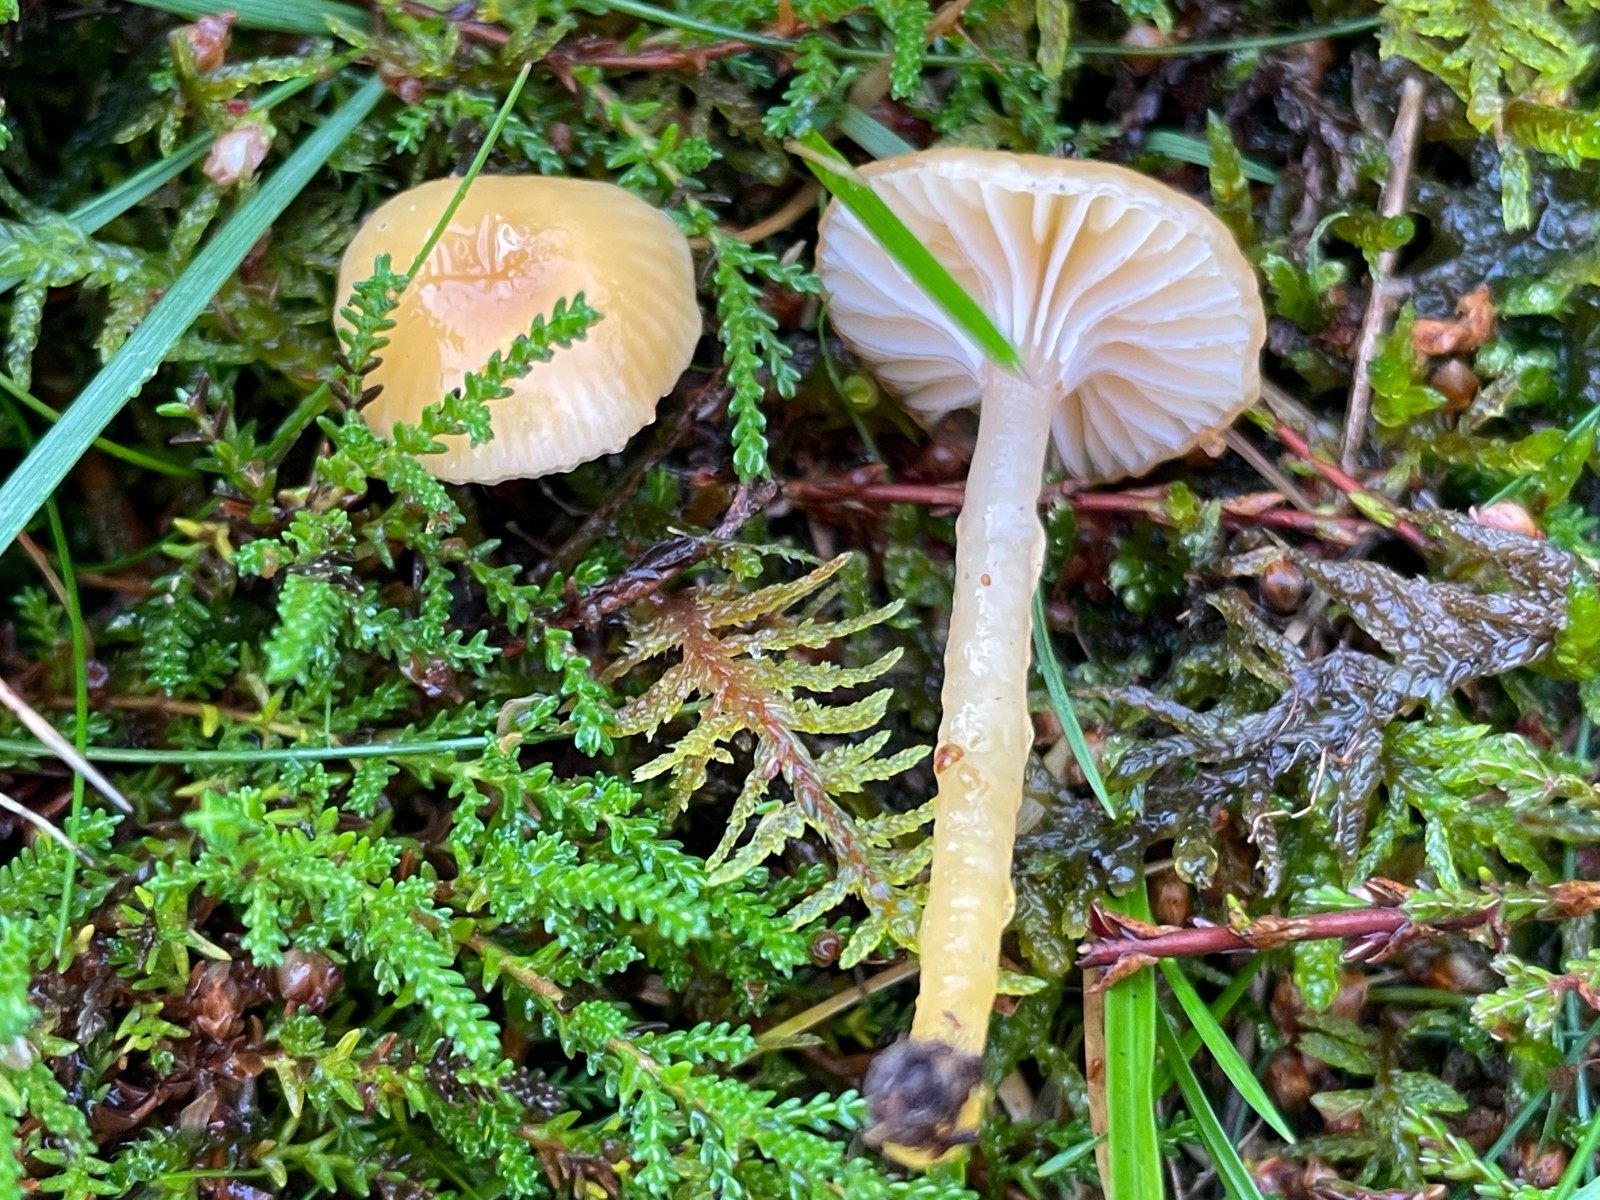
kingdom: Fungi
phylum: Basidiomycota
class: Agaricomycetes
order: Agaricales
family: Hygrophoraceae
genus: Gliophorus
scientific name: Gliophorus laetus
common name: brusk-vokshat
